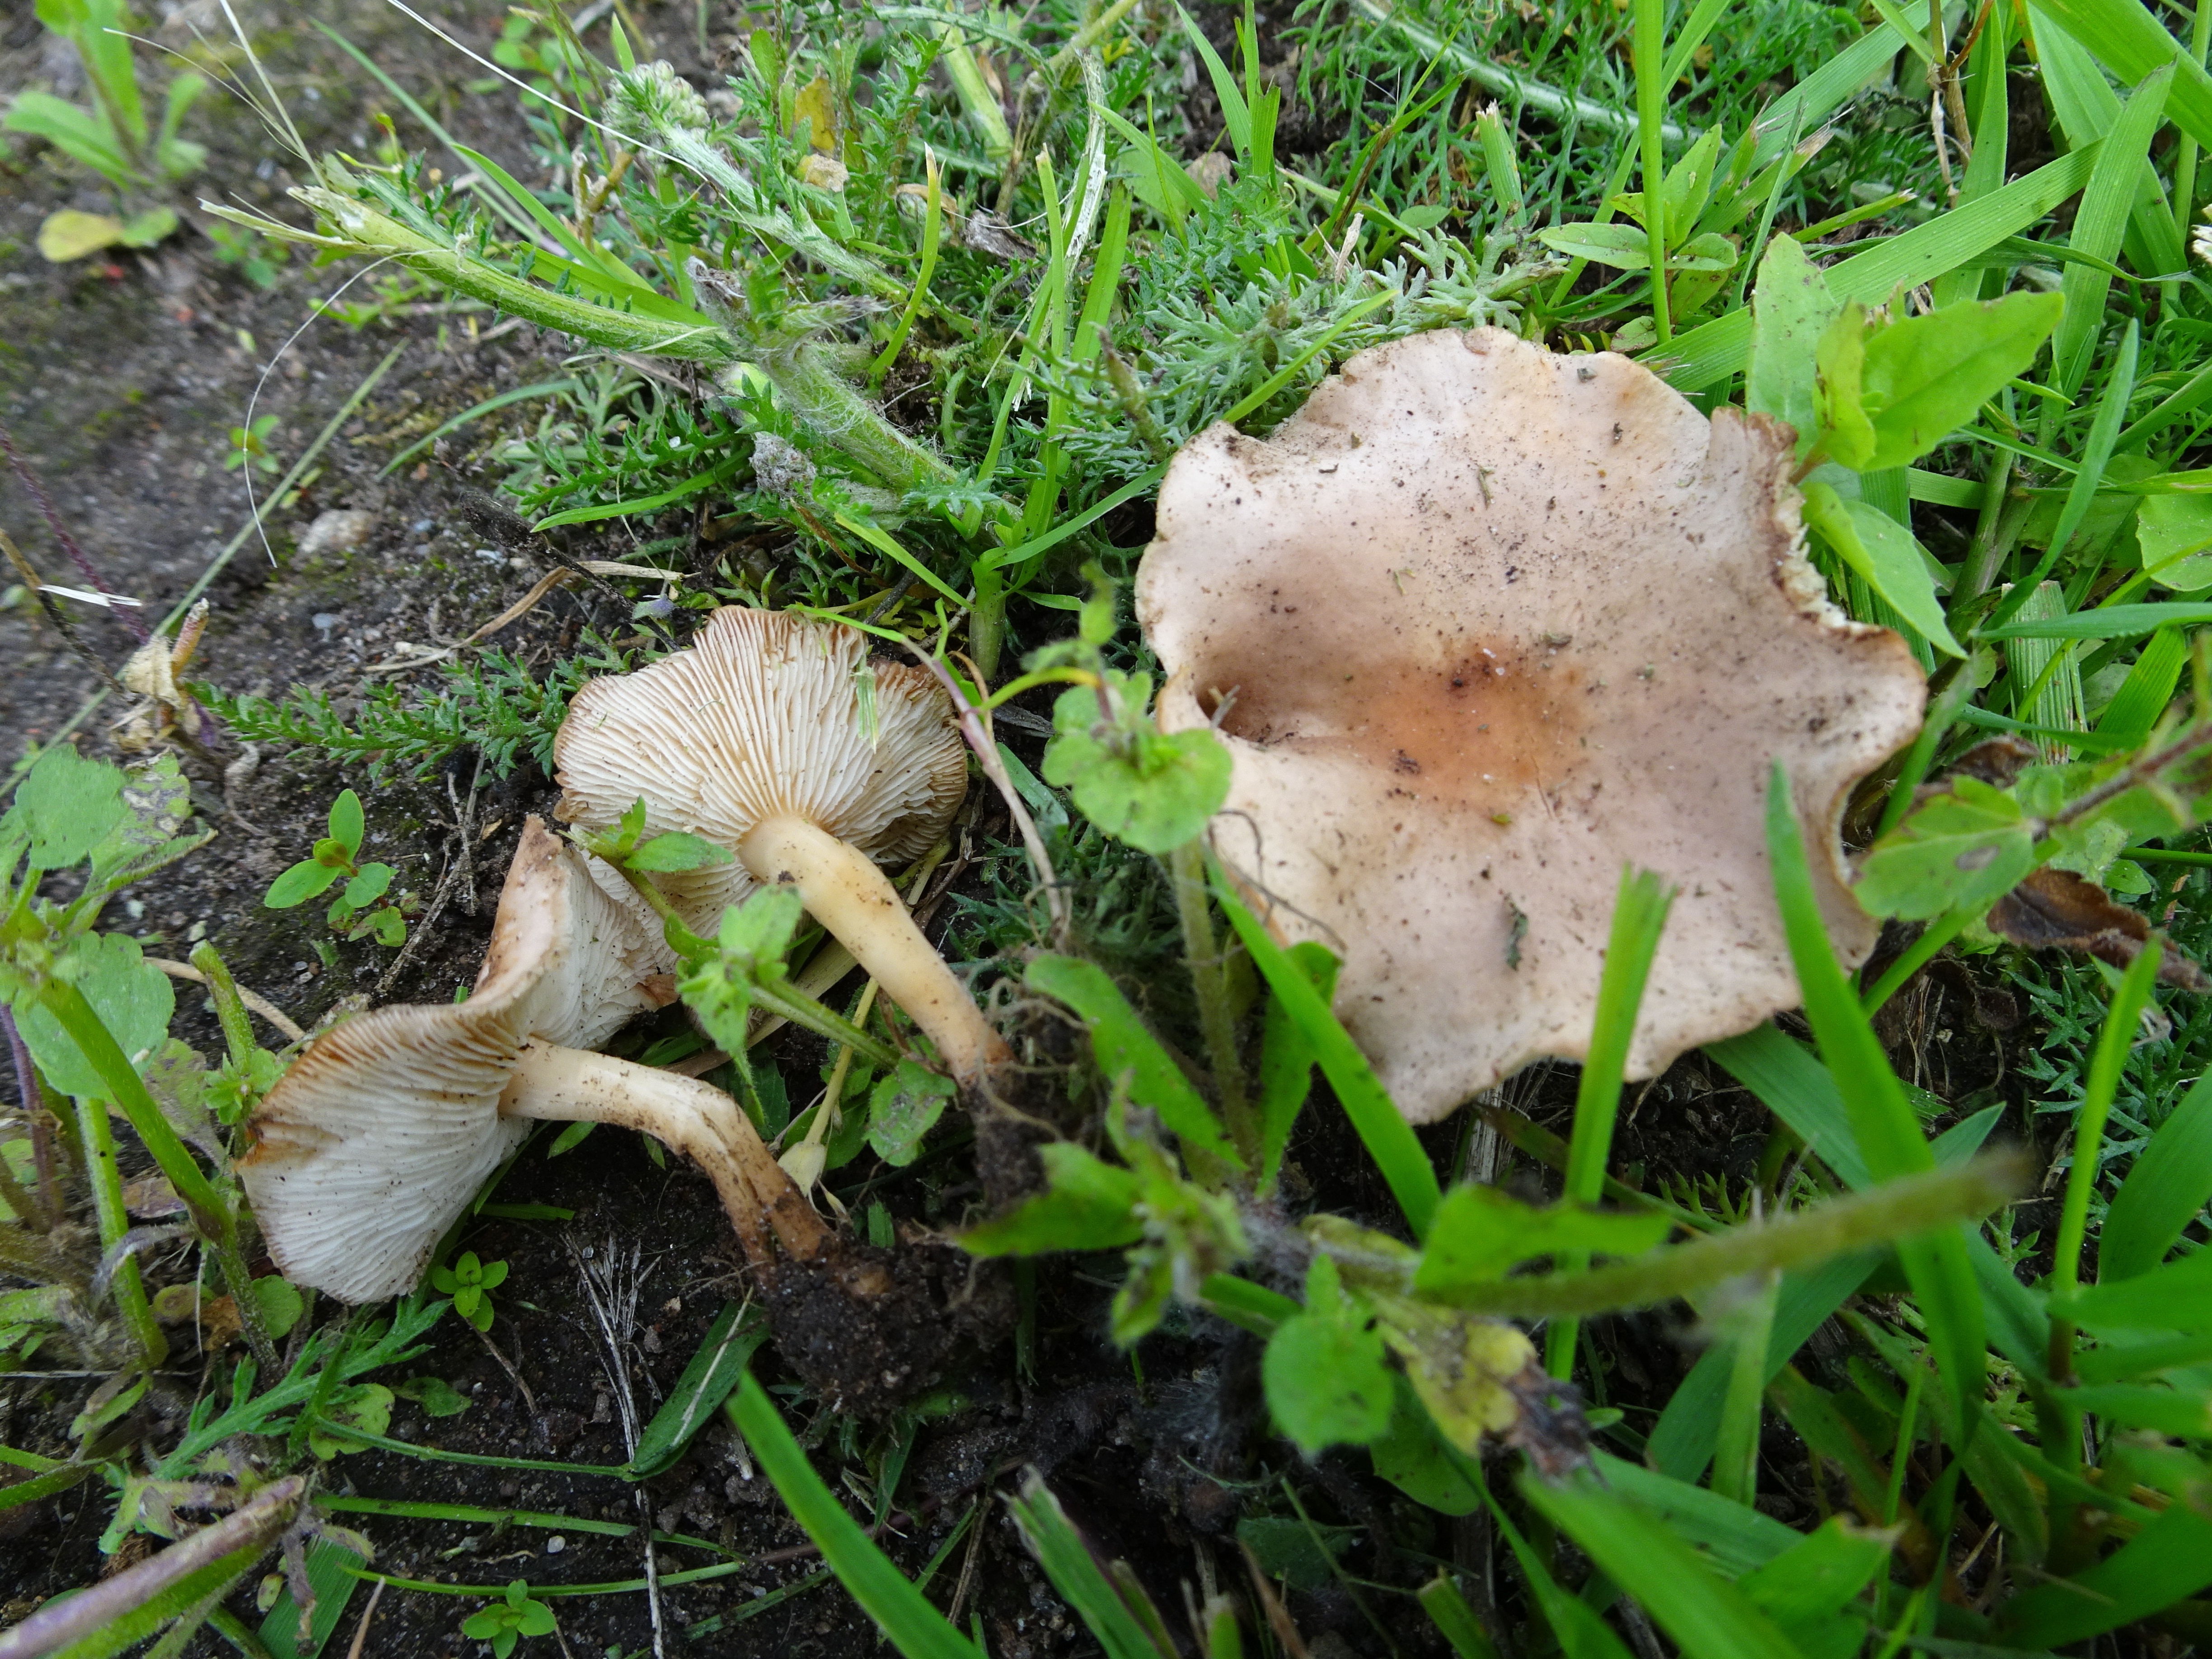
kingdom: Fungi
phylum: Basidiomycota
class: Agaricomycetes
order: Agaricales
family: Lyophyllaceae
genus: Calocybe
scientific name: Calocybe carnea
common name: Pink domecap
